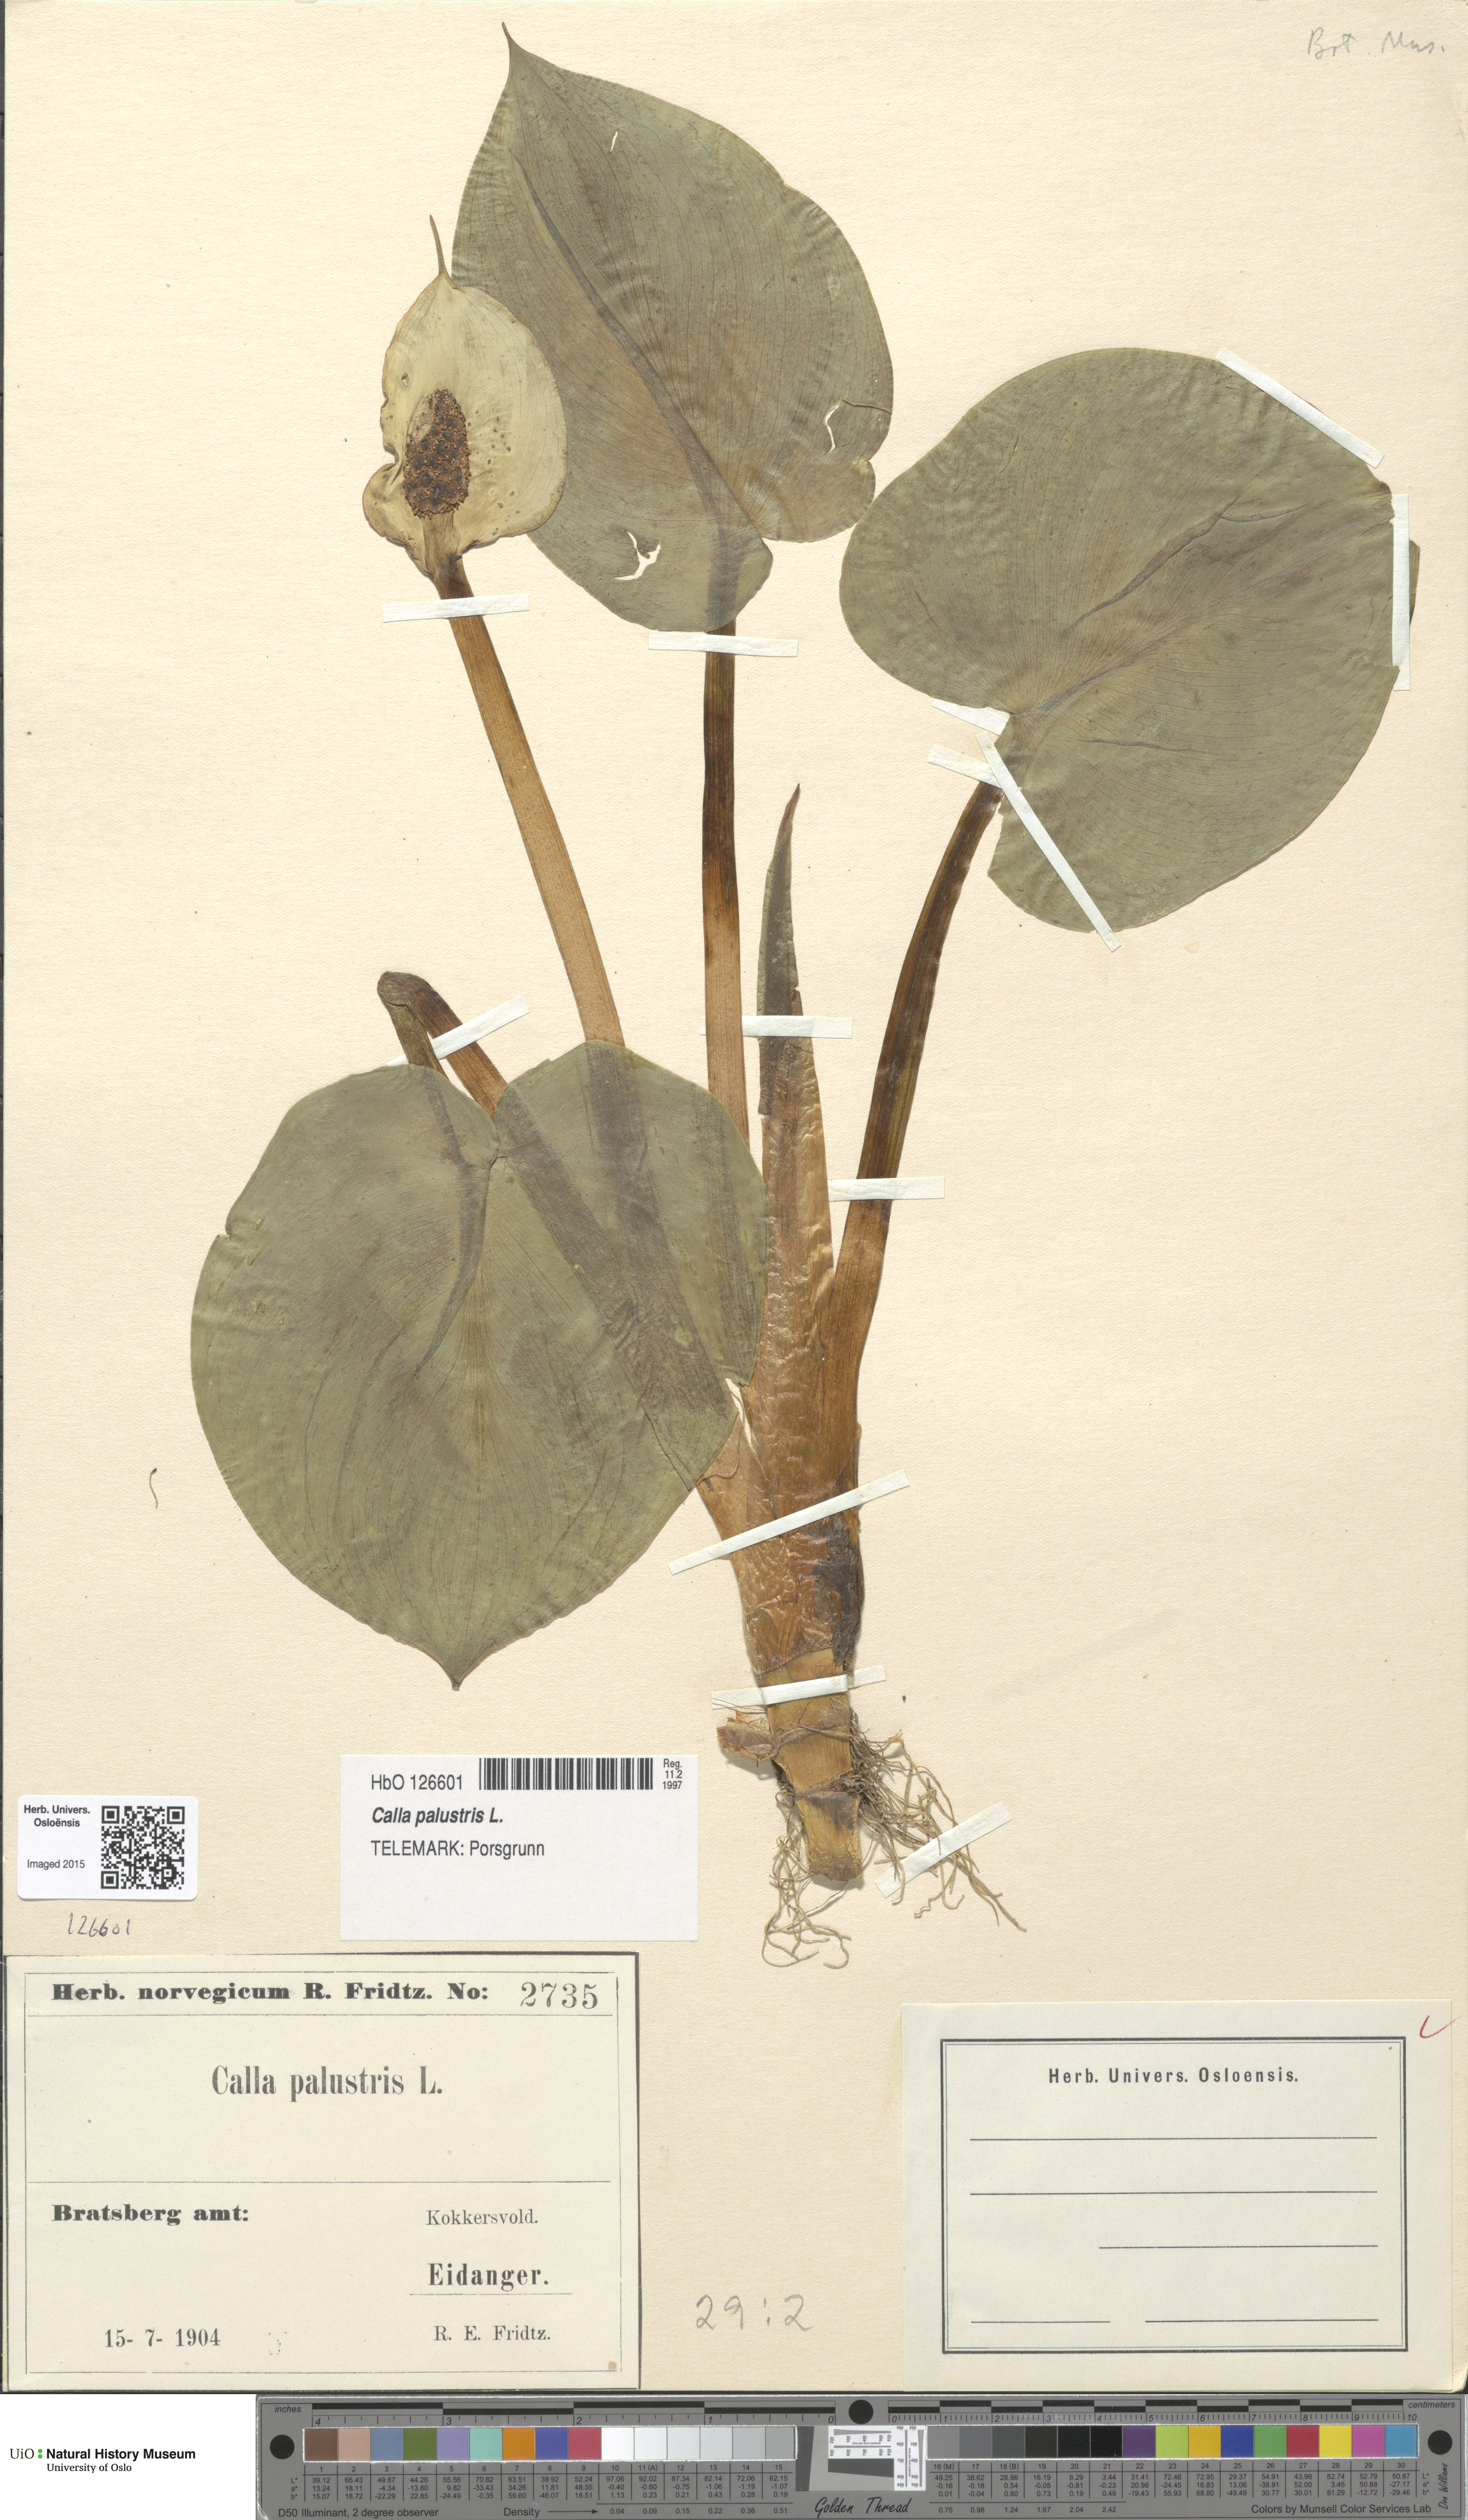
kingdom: Plantae
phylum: Tracheophyta
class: Liliopsida
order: Alismatales
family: Araceae
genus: Calla
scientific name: Calla palustris
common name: Bog arum
